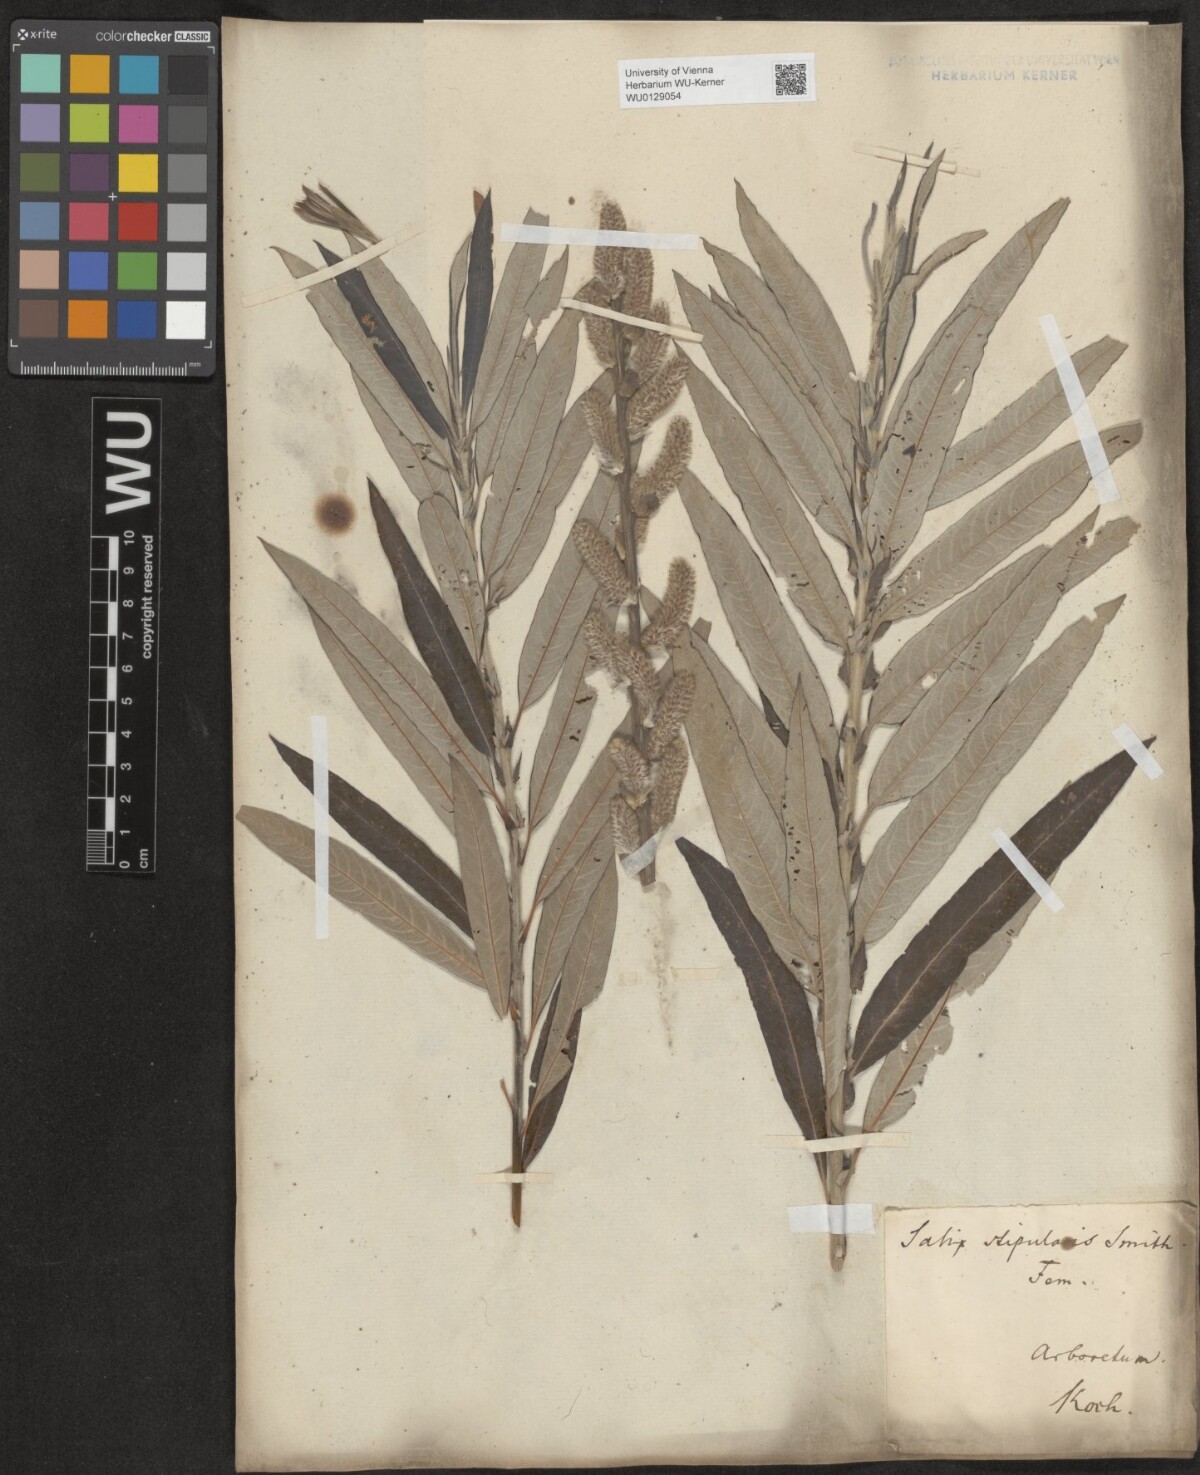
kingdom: Plantae
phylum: Tracheophyta
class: Magnoliopsida
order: Malpighiales
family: Salicaceae
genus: Salix
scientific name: Salix
